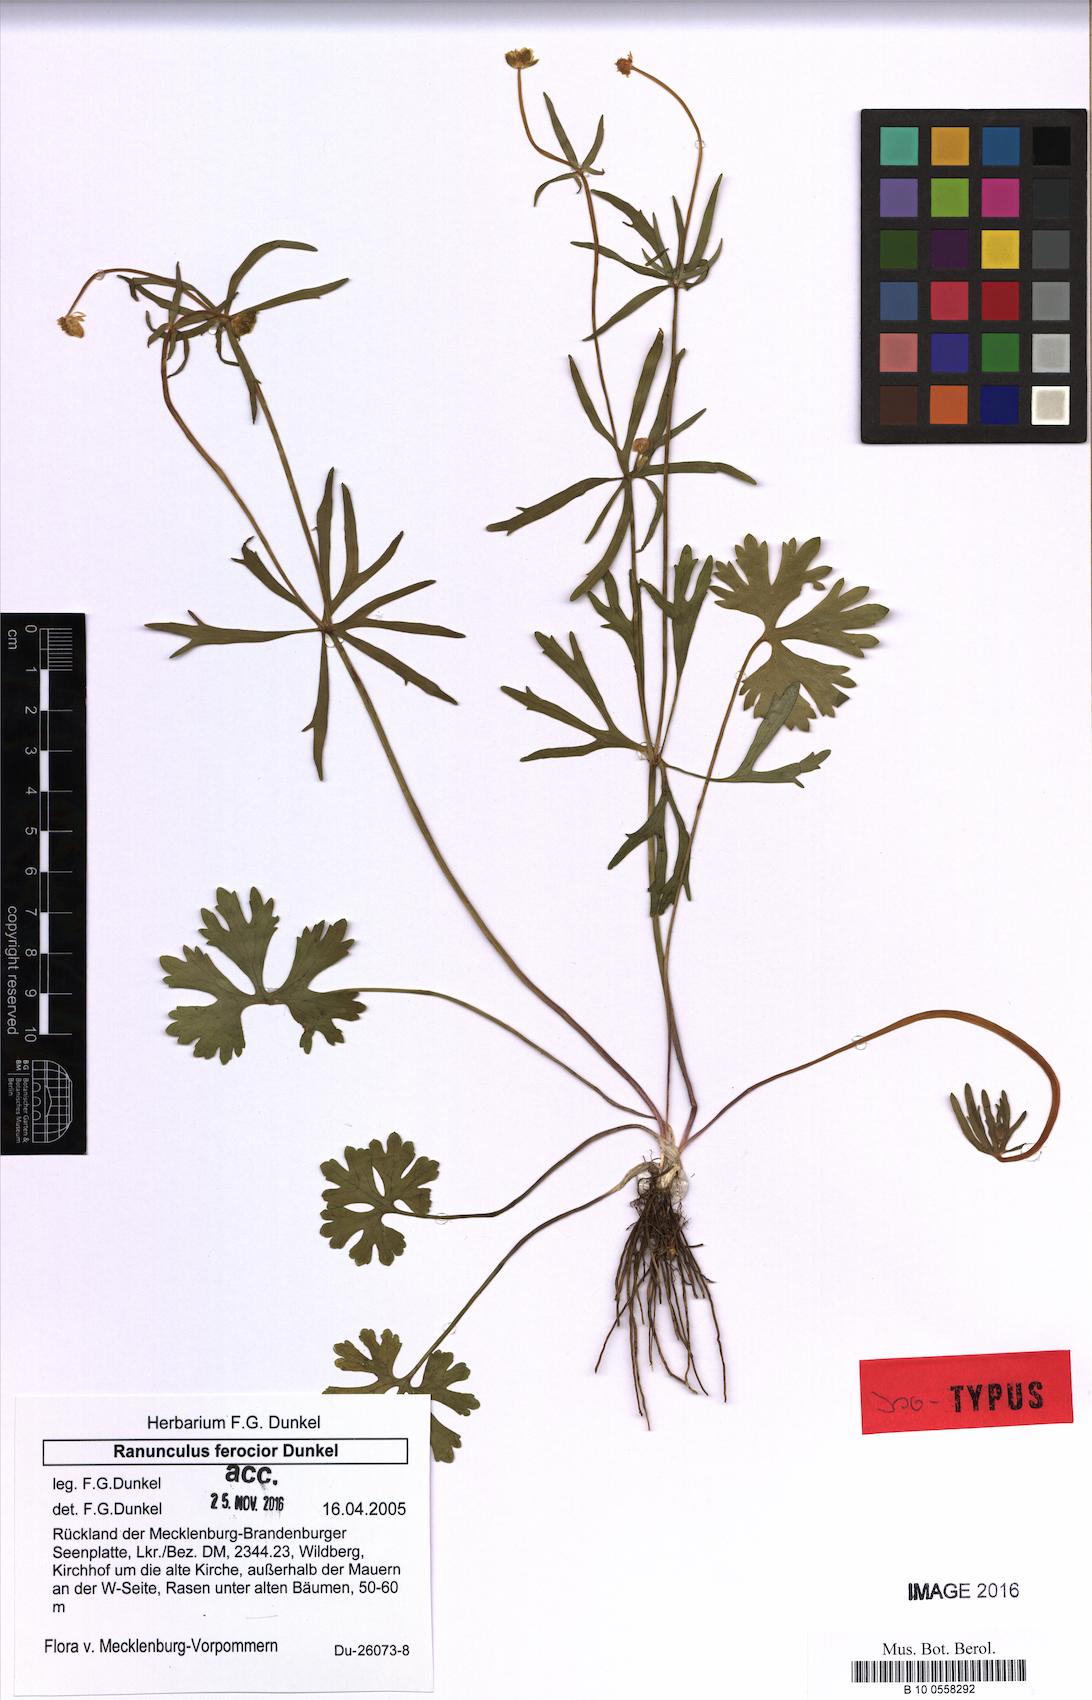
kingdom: Plantae
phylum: Tracheophyta
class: Magnoliopsida
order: Ranunculales
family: Ranunculaceae
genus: Ranunculus
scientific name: Ranunculus ferocior
